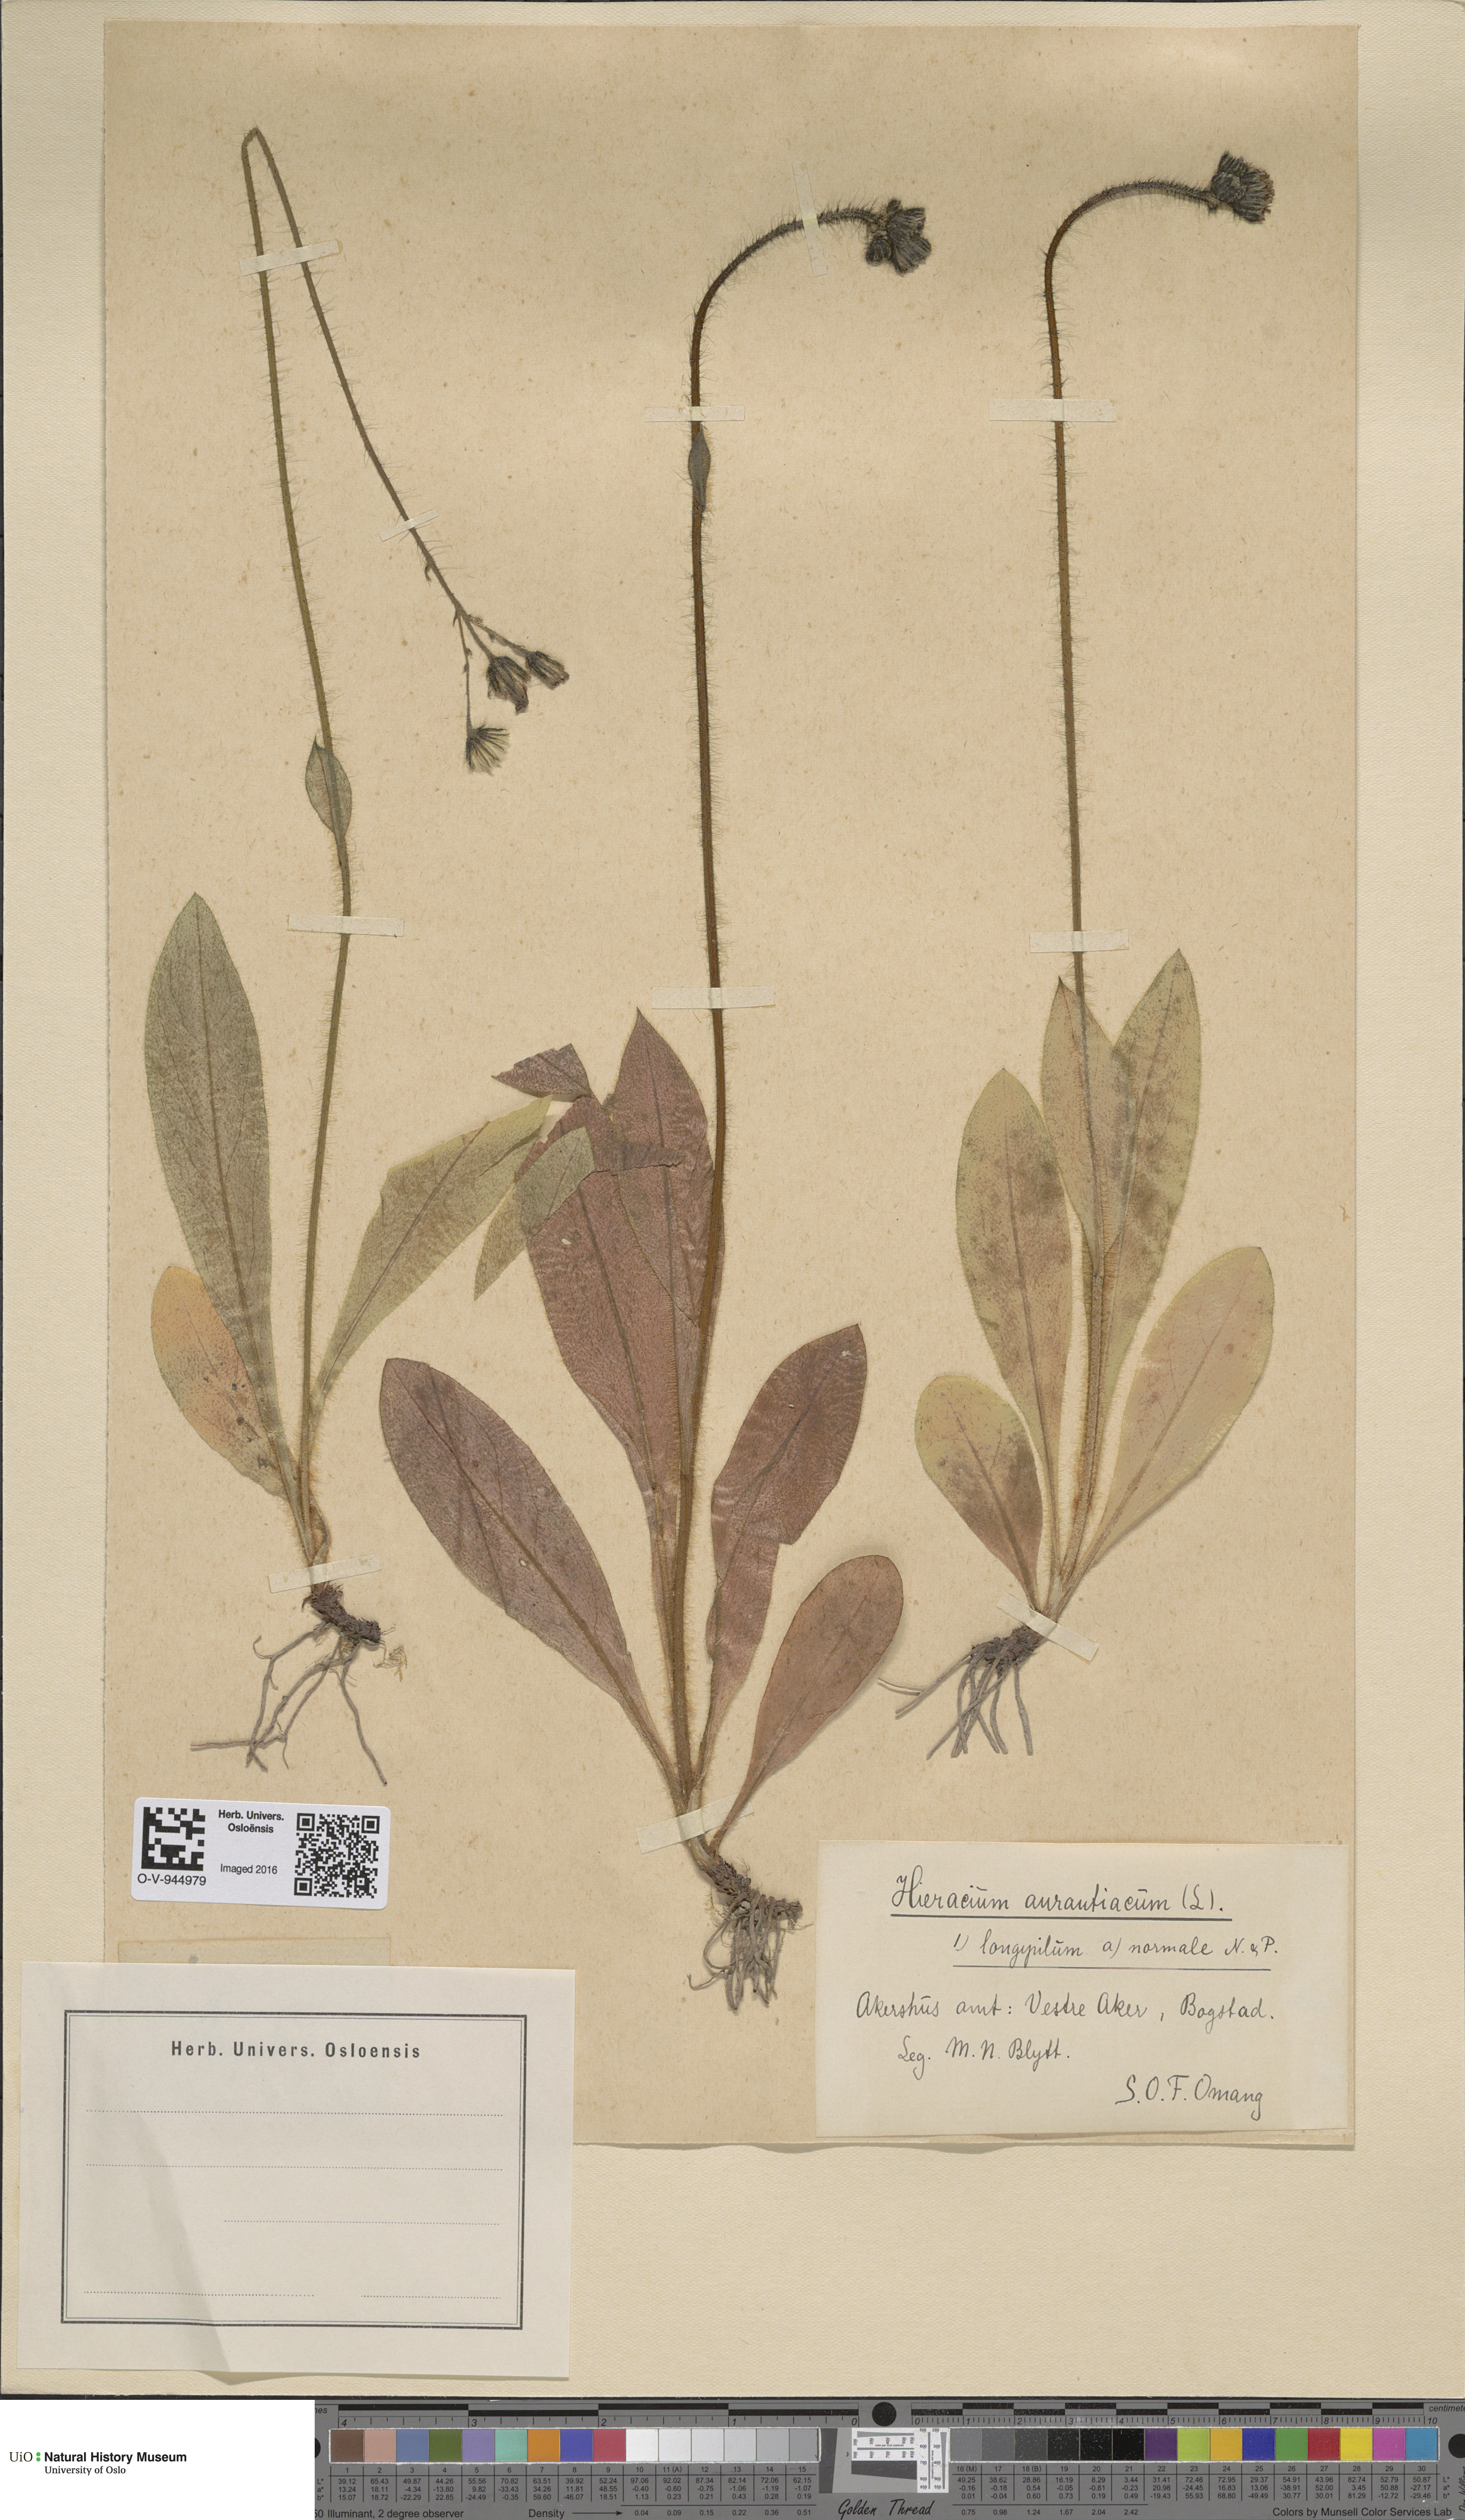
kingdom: Plantae
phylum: Tracheophyta
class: Magnoliopsida
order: Asterales
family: Asteraceae
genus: Pilosella
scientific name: Pilosella aurantiaca
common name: Fox-and-cubs
